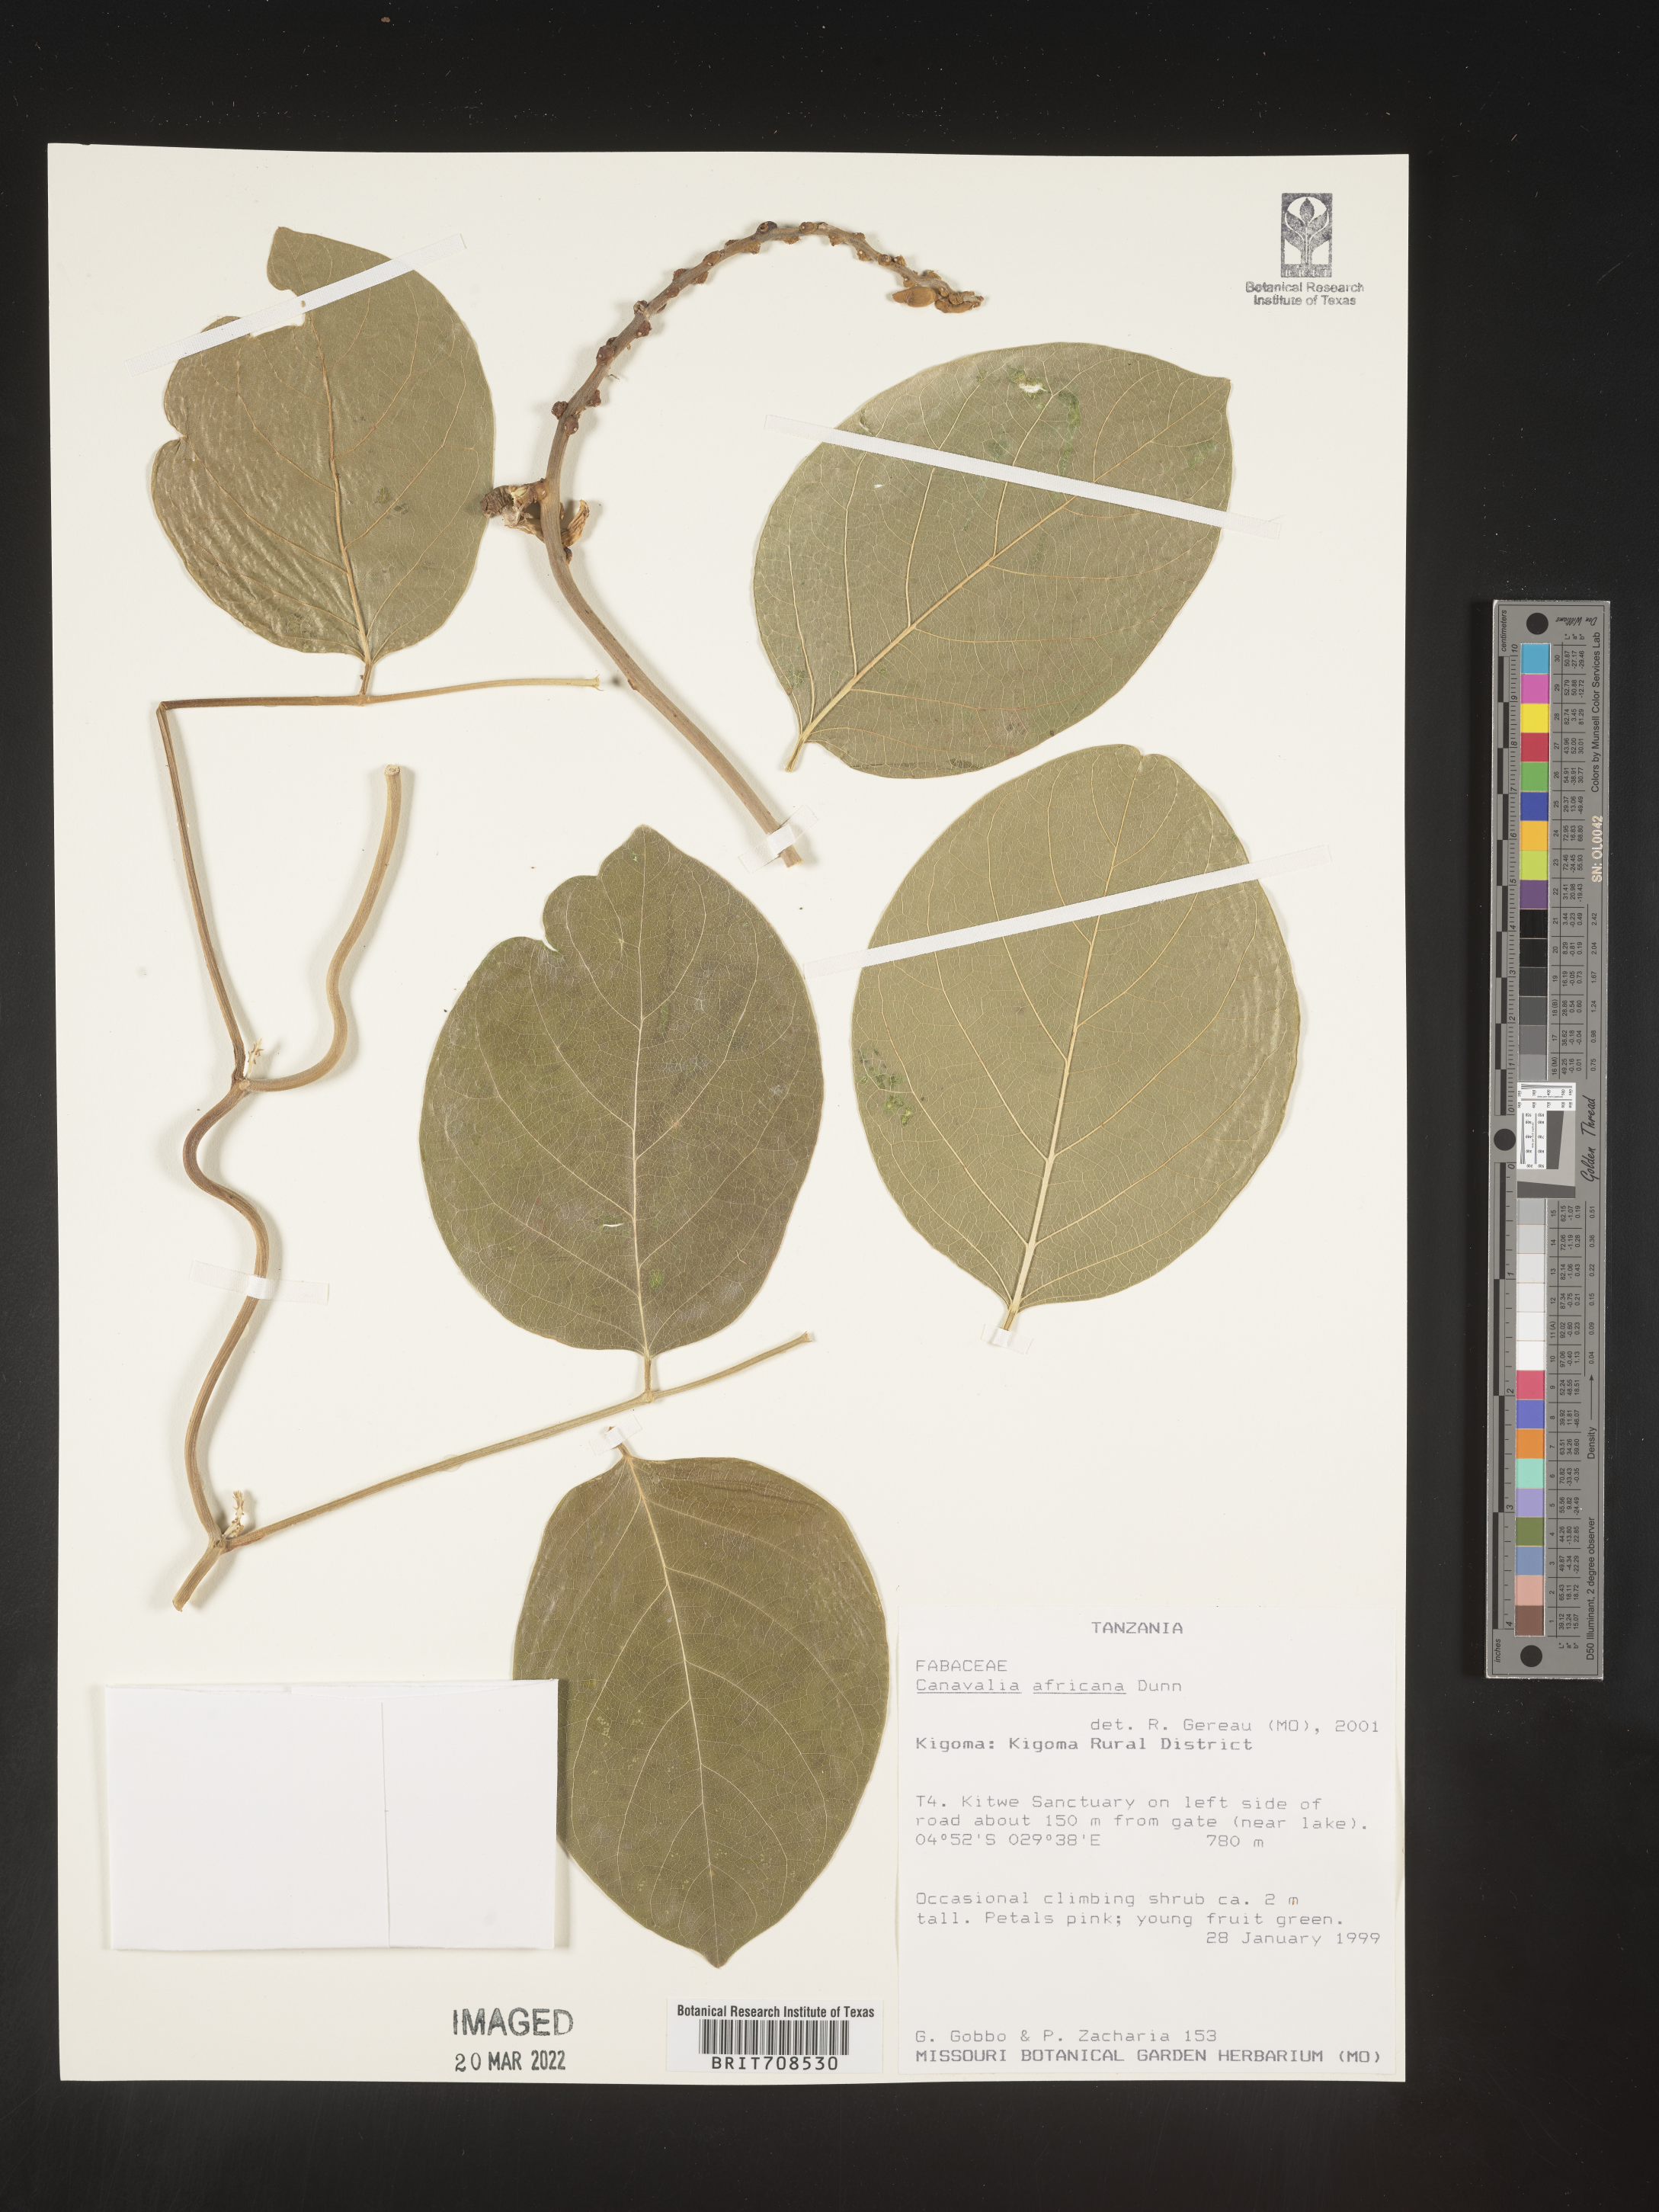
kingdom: Plantae
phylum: Tracheophyta
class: Magnoliopsida
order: Fabales
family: Fabaceae
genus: Canavalia
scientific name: Canavalia
